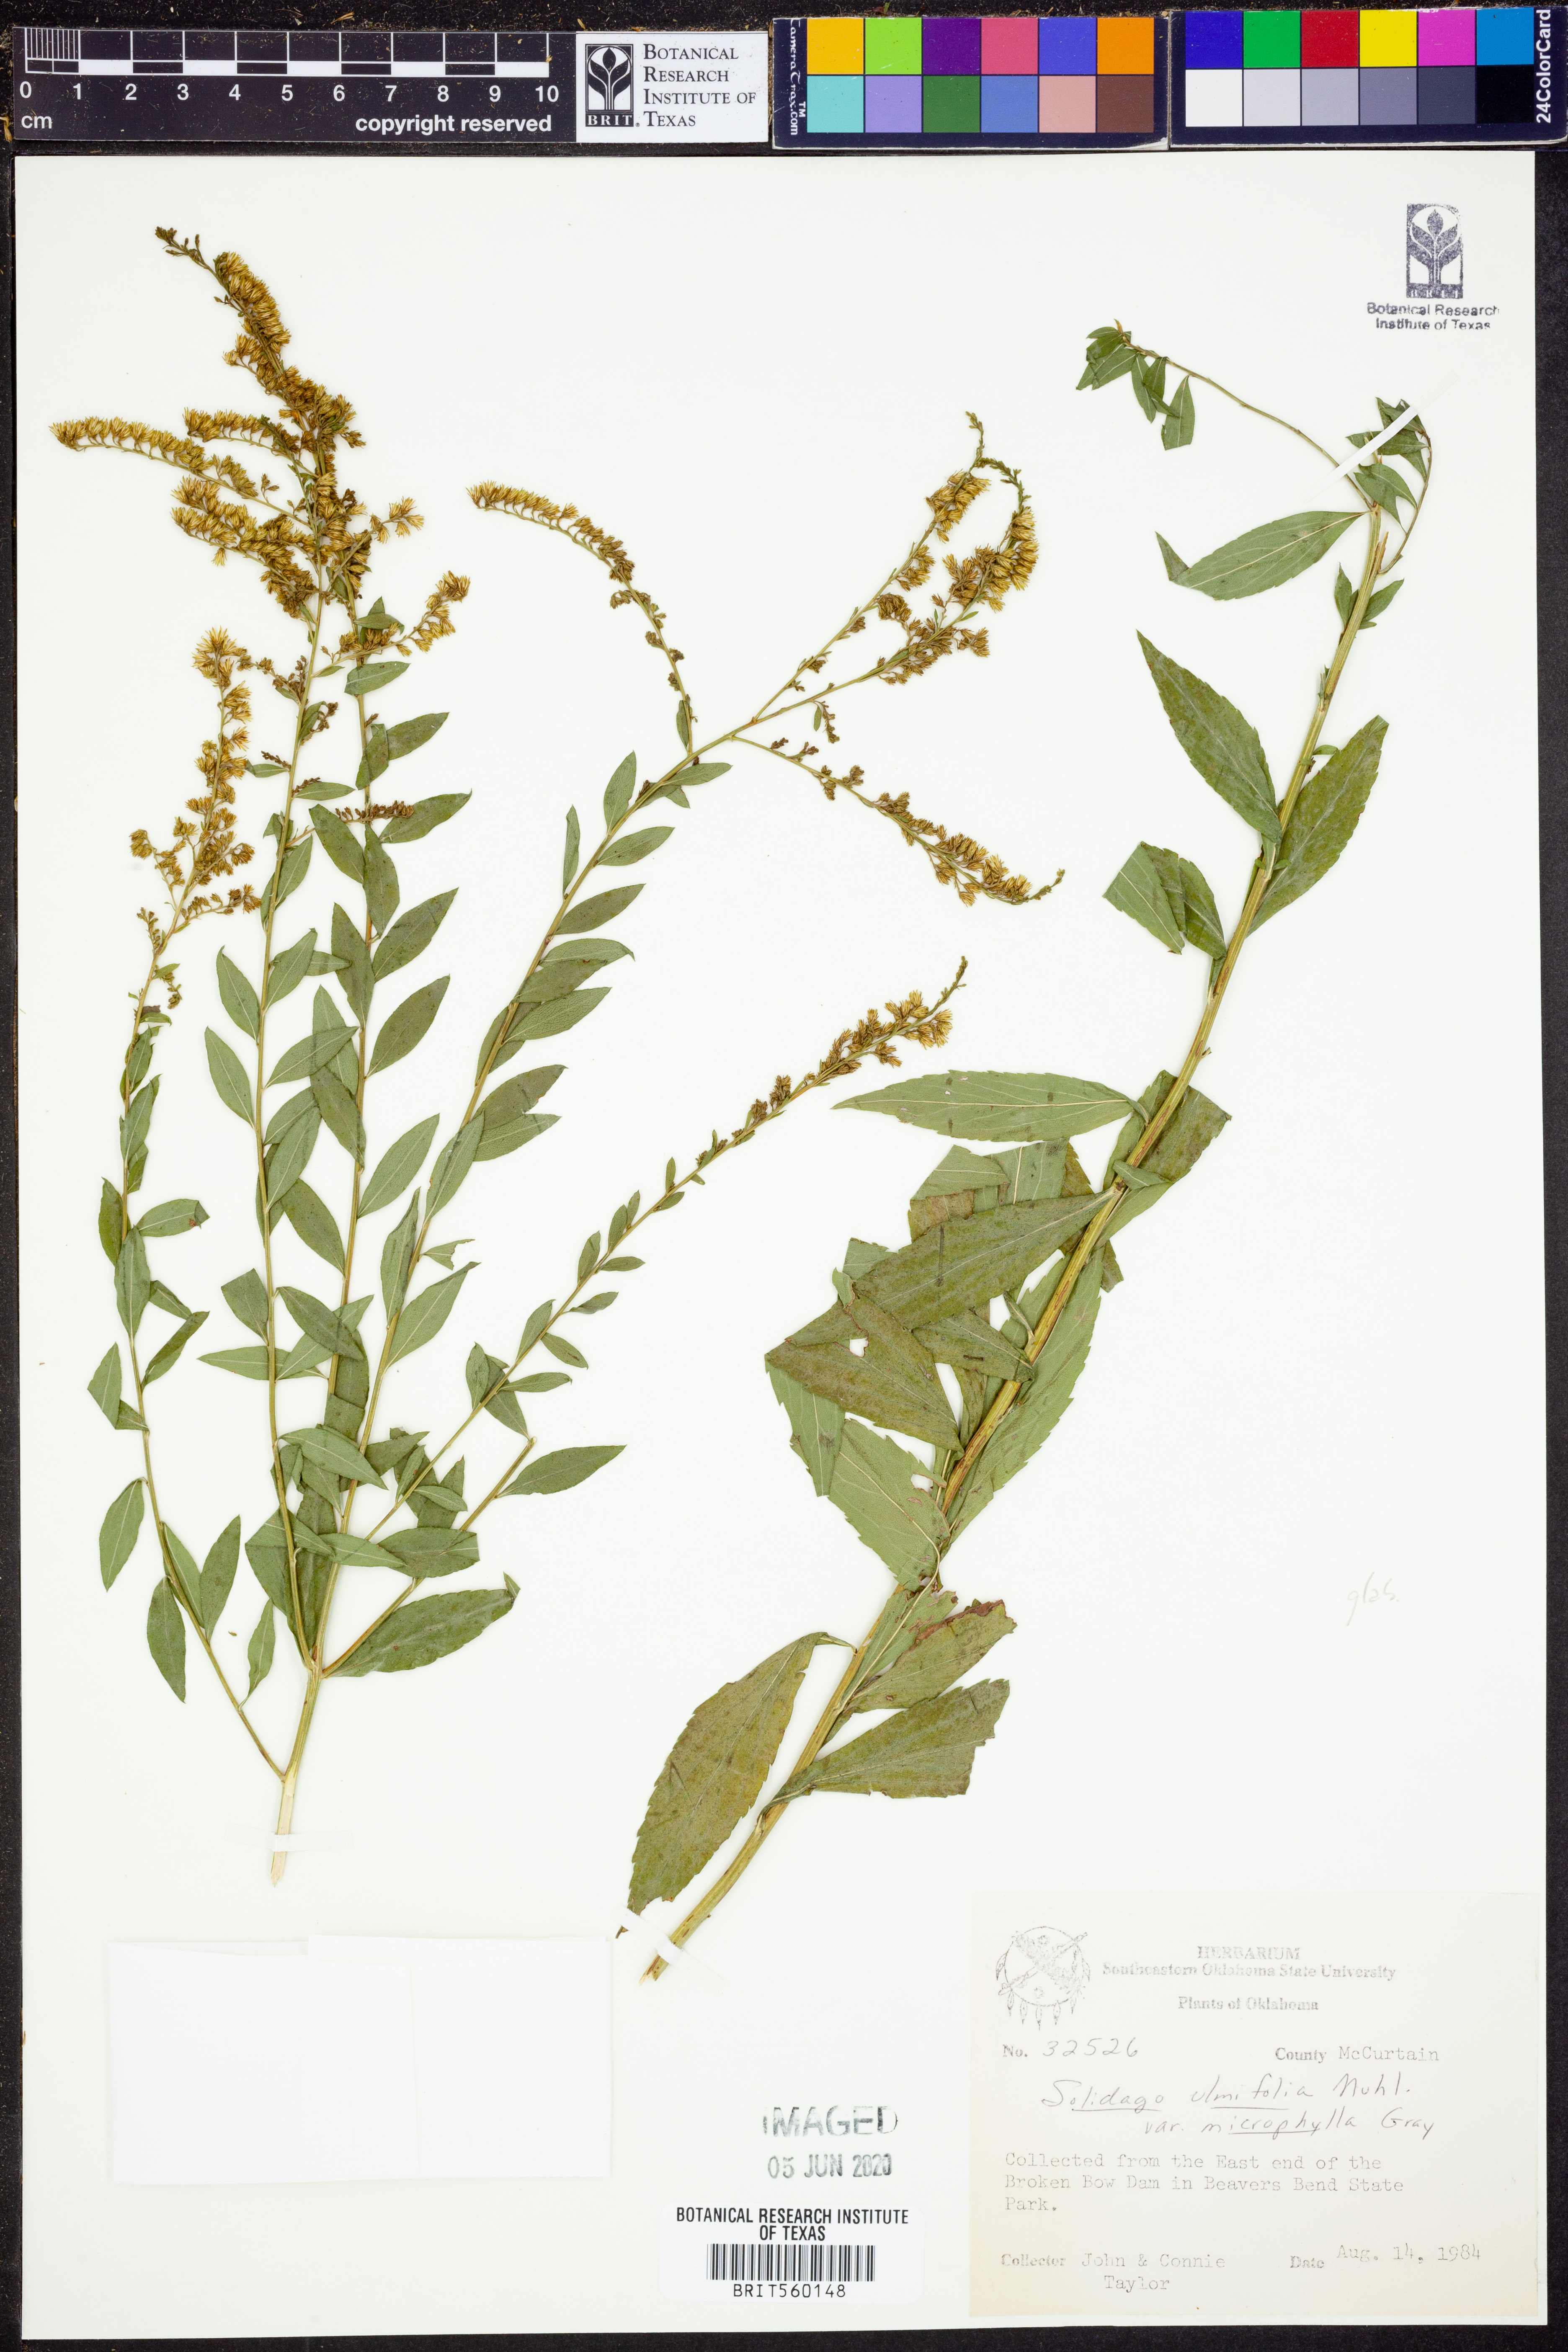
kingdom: Plantae
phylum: Tracheophyta
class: Magnoliopsida
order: Asterales
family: Asteraceae
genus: Solidago
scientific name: Solidago delicatula
